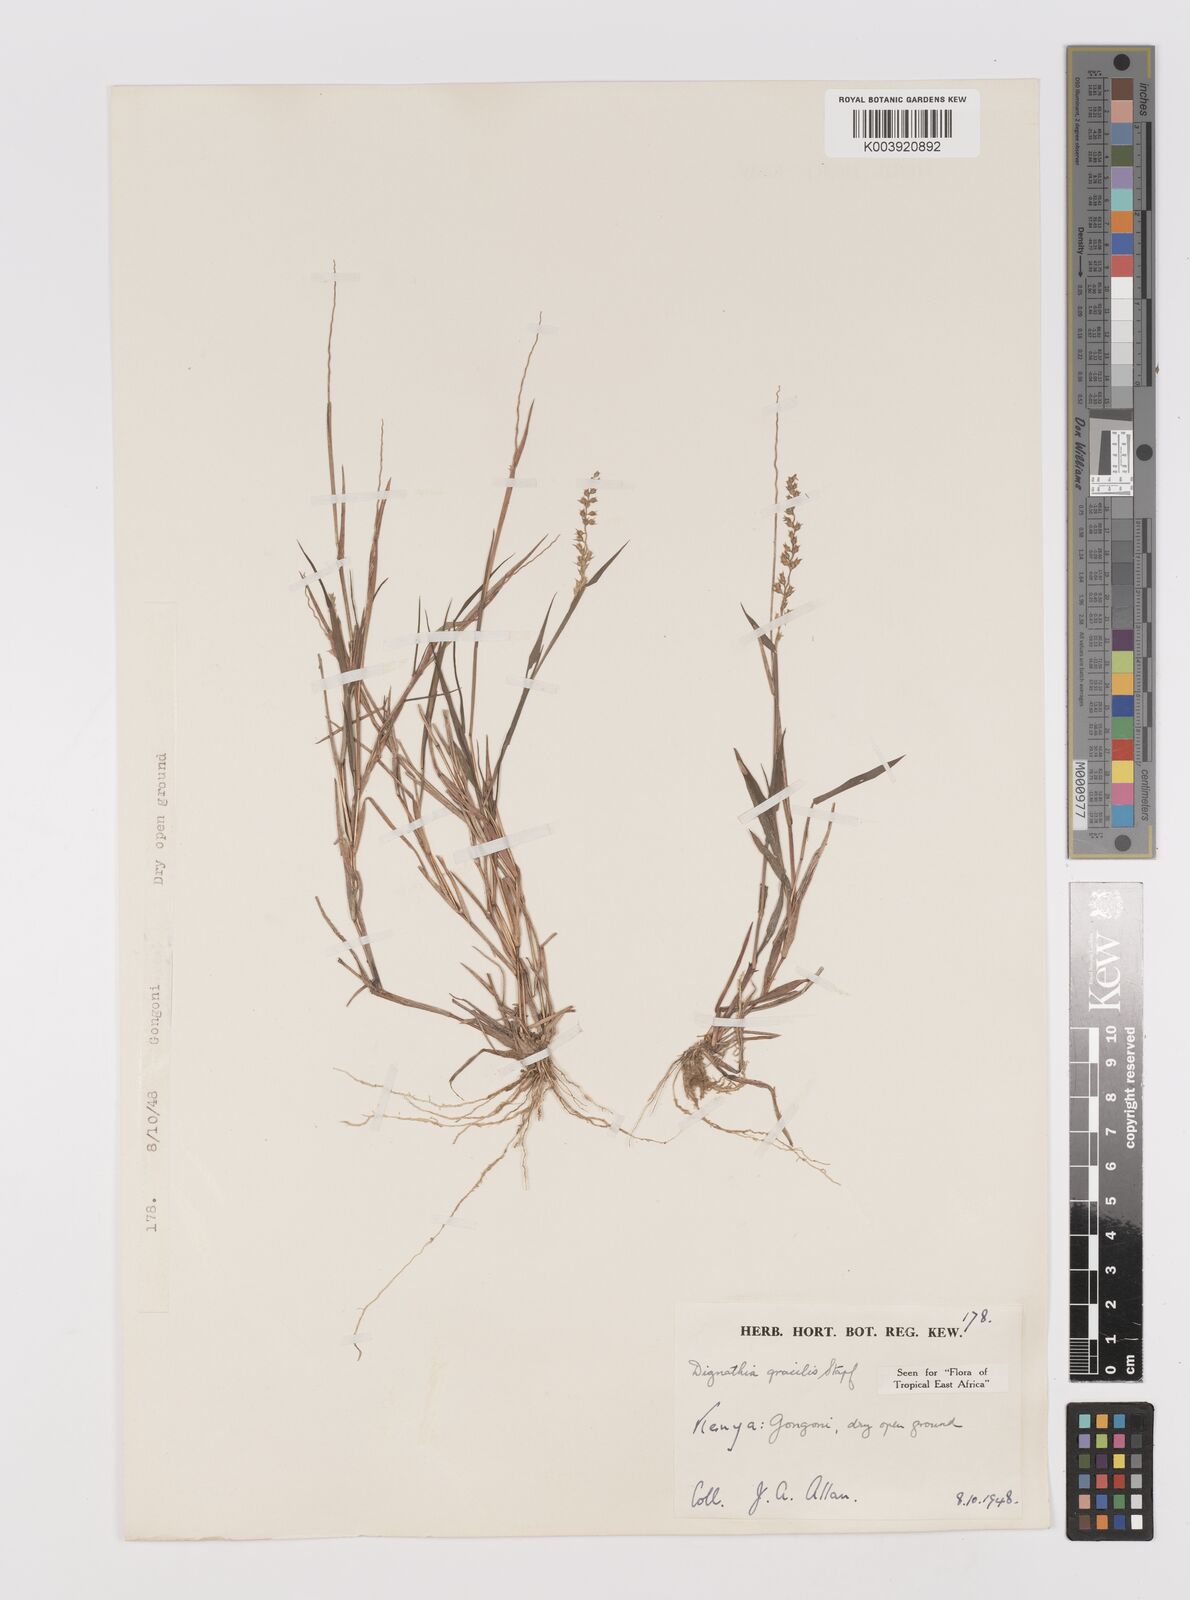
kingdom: Plantae
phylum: Tracheophyta
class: Liliopsida
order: Poales
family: Poaceae
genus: Dignathia
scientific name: Dignathia gracilis
